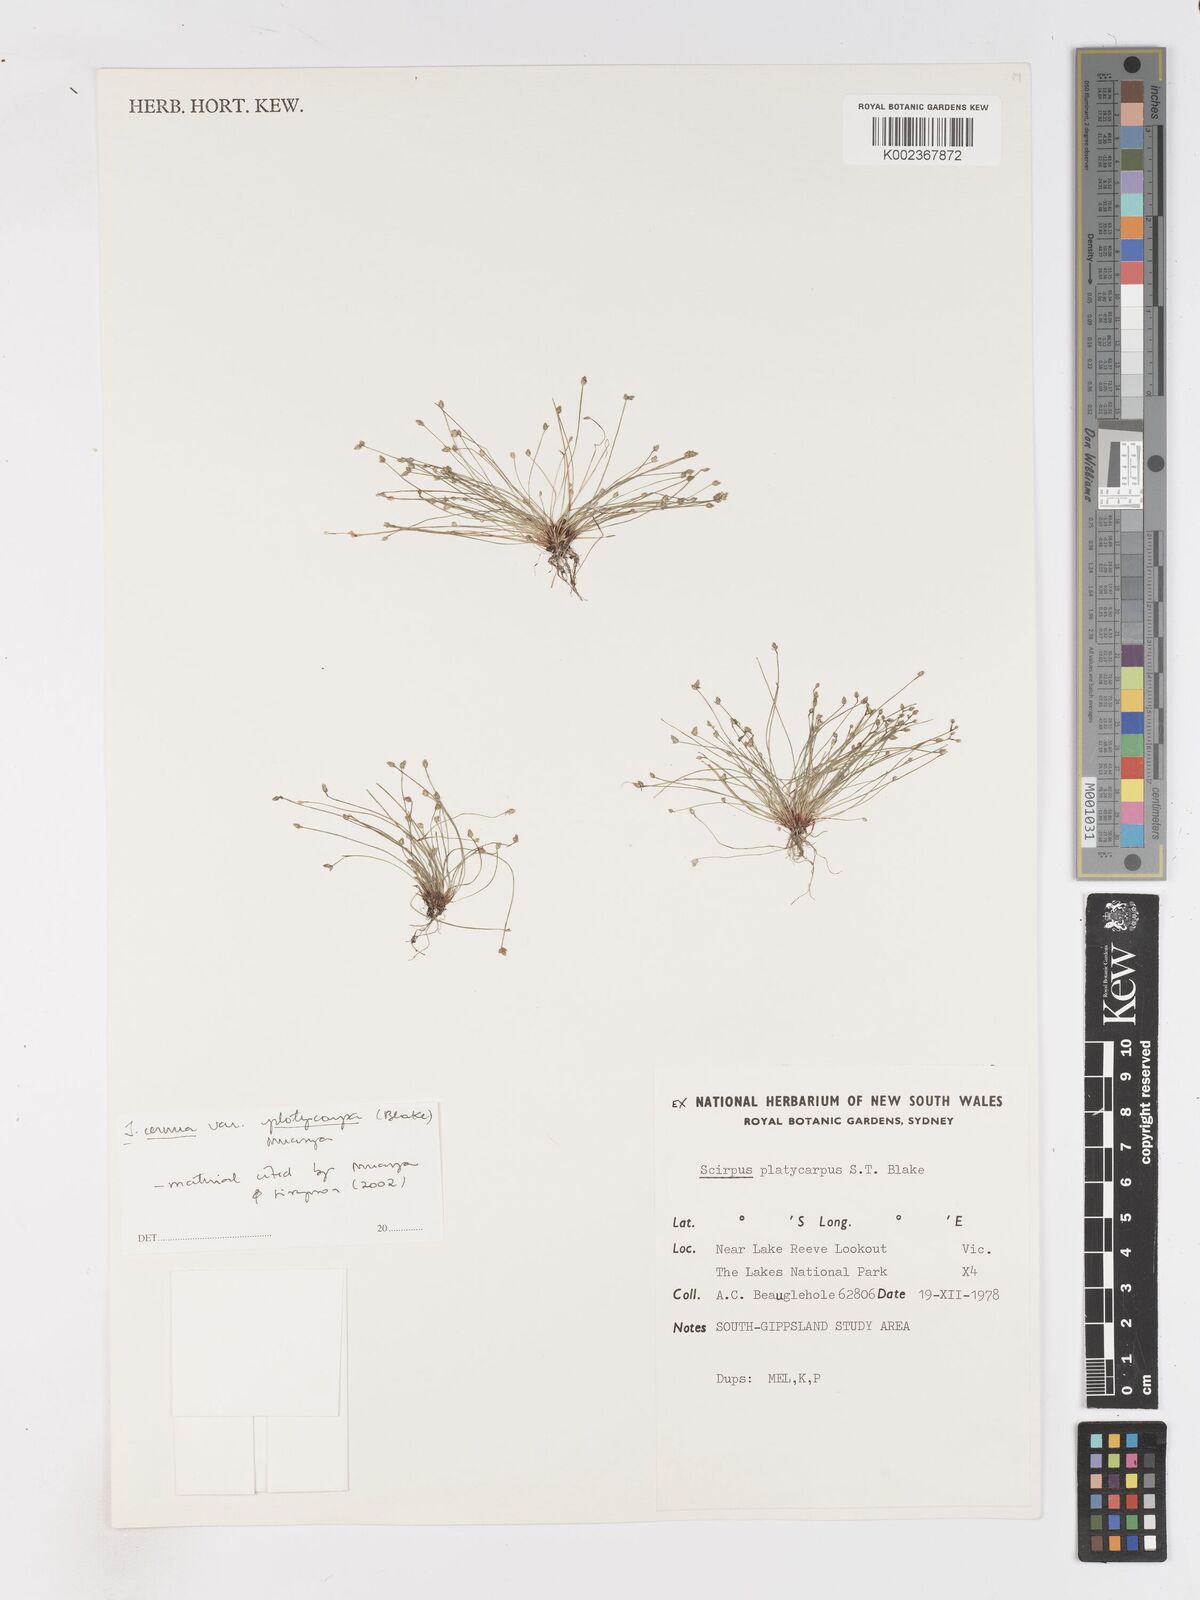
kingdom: Plantae
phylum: Tracheophyta
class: Liliopsida
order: Poales
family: Cyperaceae
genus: Isolepis
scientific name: Isolepis cernua
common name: Slender club-rush
